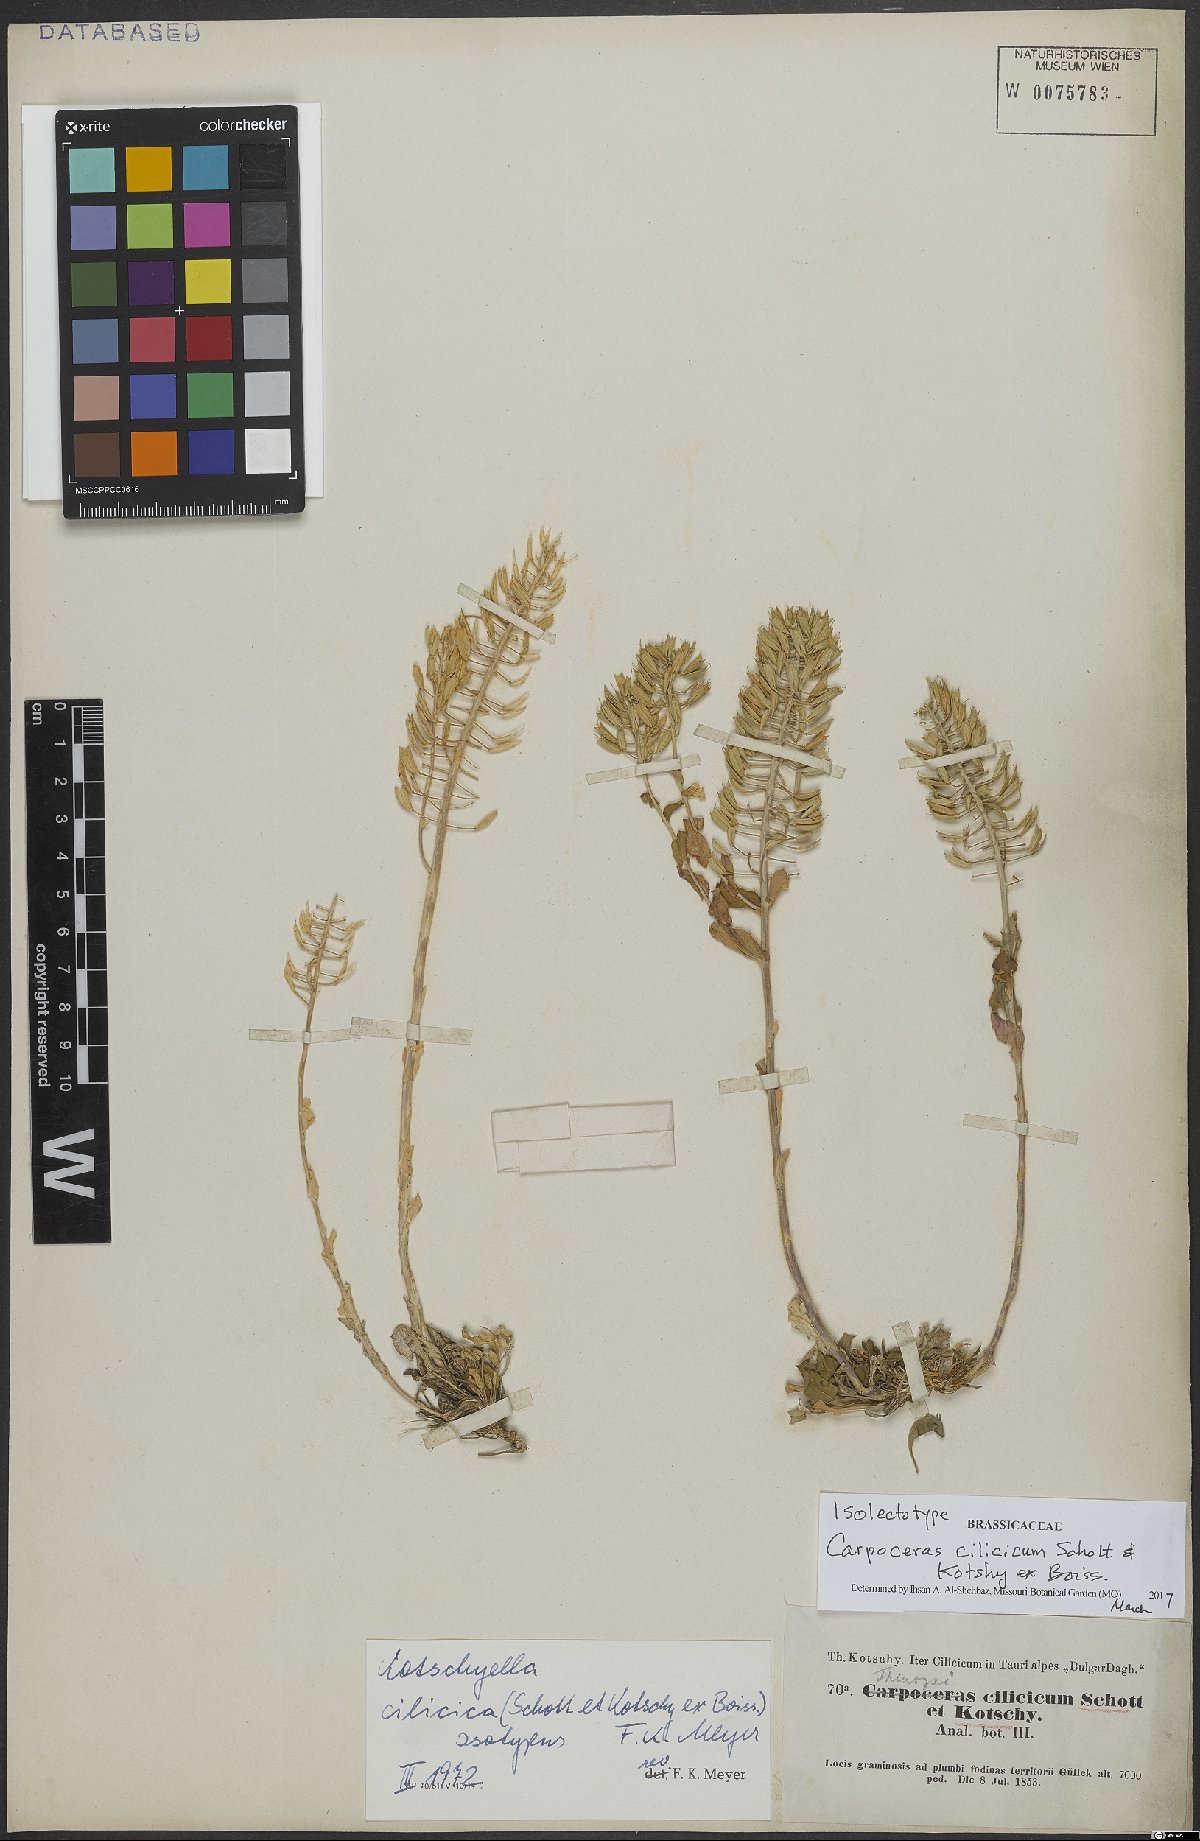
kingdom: Plantae
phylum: Tracheophyta
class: Magnoliopsida
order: Brassicales
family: Brassicaceae
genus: Noccaea
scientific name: Noccaea cilicica
